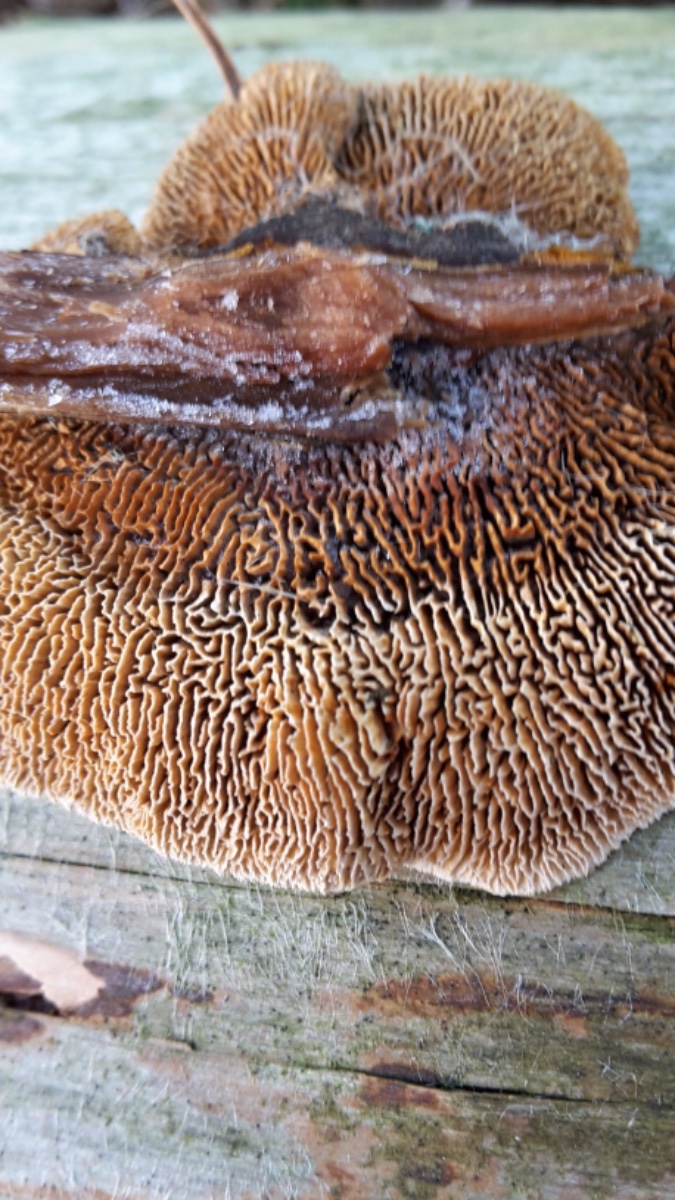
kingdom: Fungi
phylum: Basidiomycota
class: Agaricomycetes
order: Gloeophyllales
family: Gloeophyllaceae
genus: Gloeophyllum
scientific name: Gloeophyllum sepiarium
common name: fyrre-korkhat
